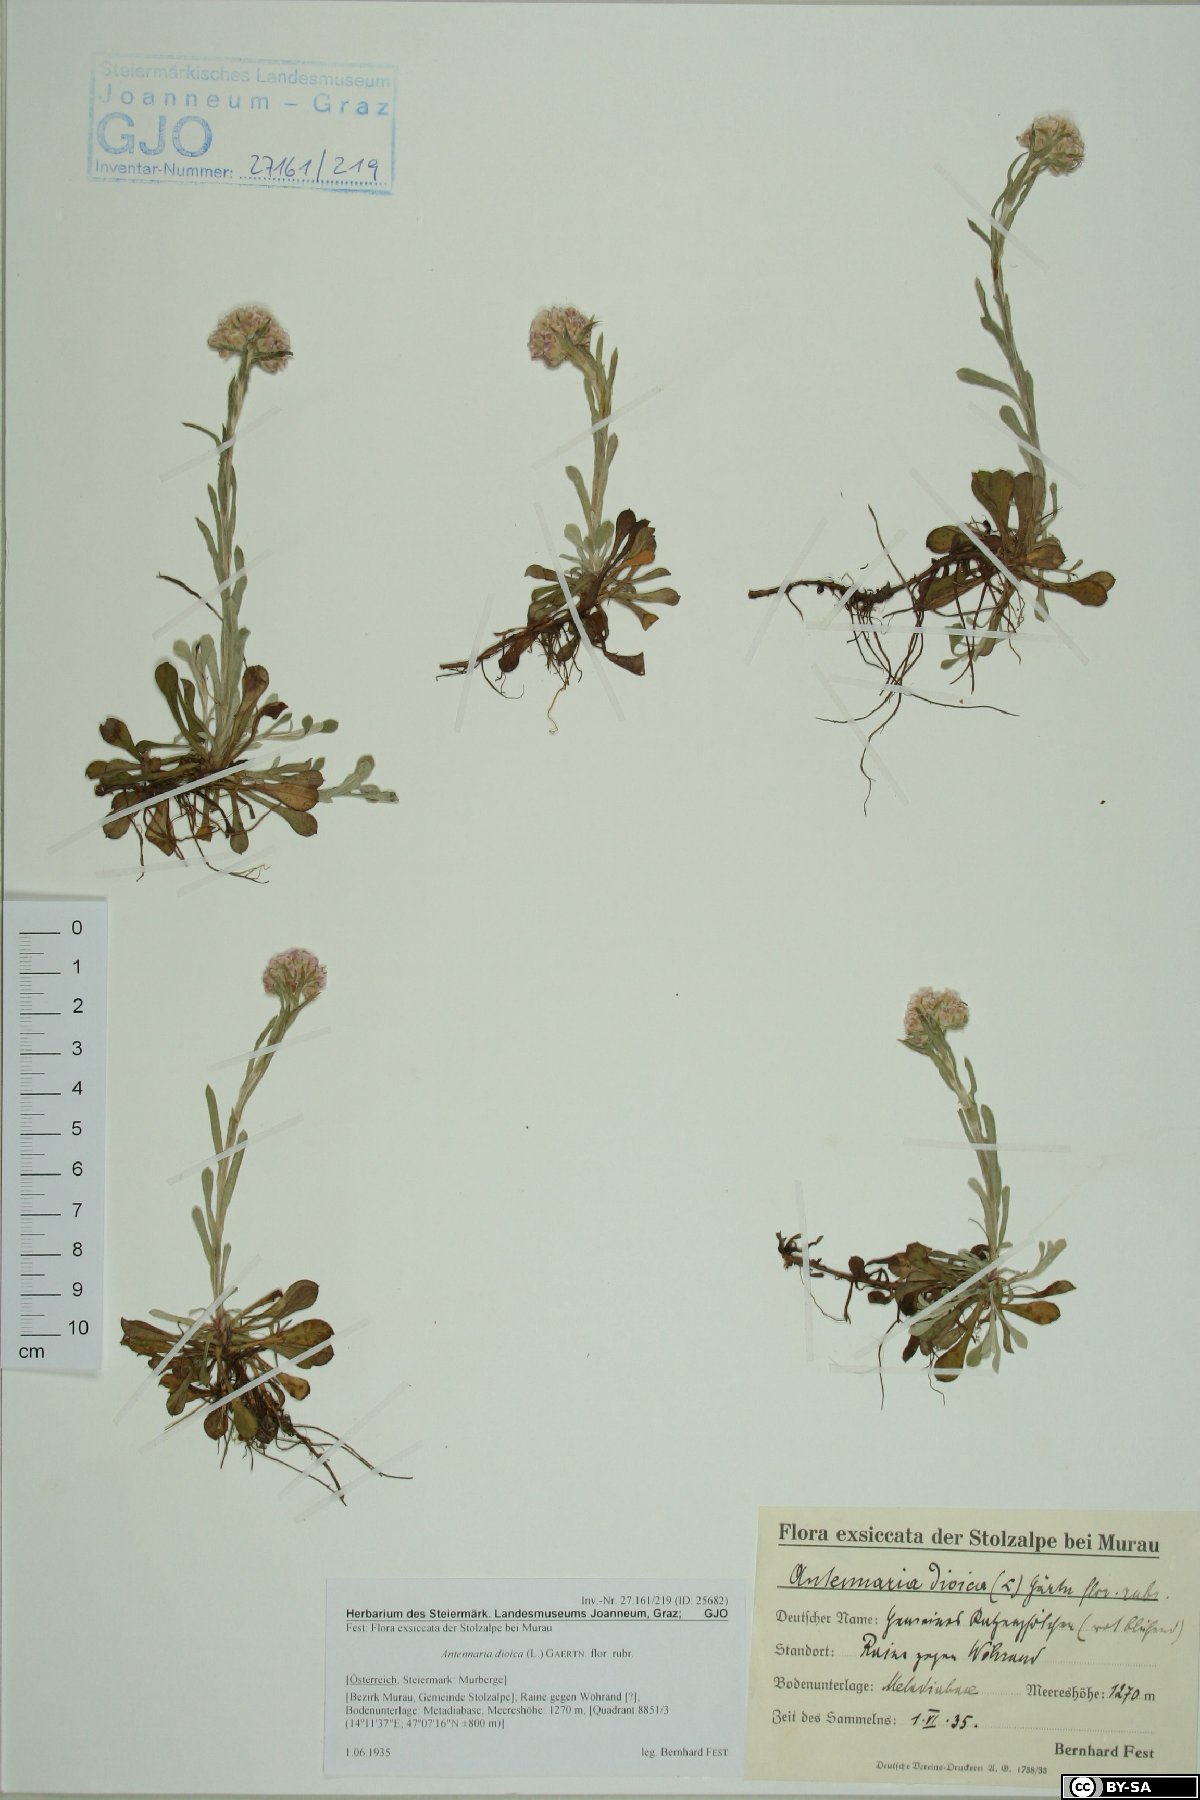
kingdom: Plantae
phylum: Tracheophyta
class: Magnoliopsida
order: Asterales
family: Asteraceae
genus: Antennaria
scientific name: Antennaria dioica
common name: Mountain everlasting
